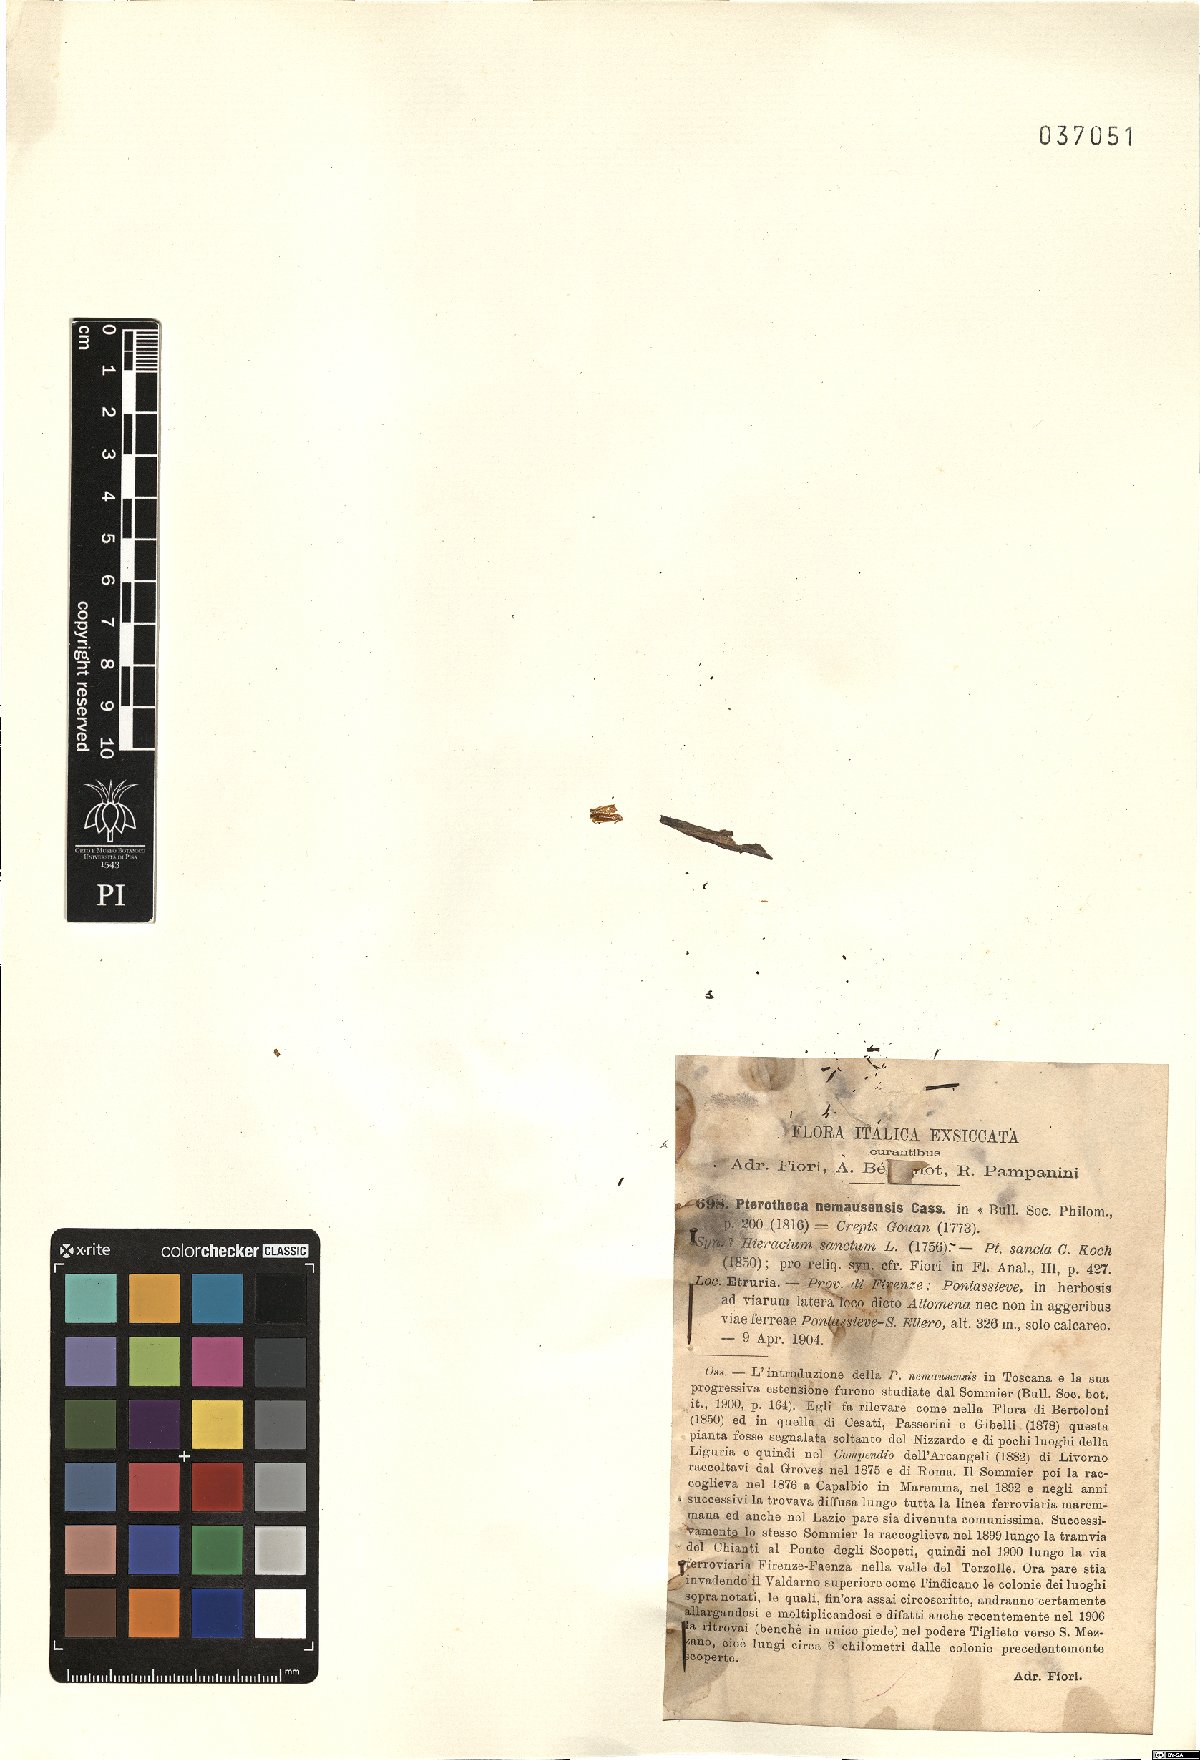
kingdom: Plantae
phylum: Tracheophyta
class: Magnoliopsida
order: Asterales
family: Asteraceae
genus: Crepis
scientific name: Crepis sancta
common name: Hawk's-beard
